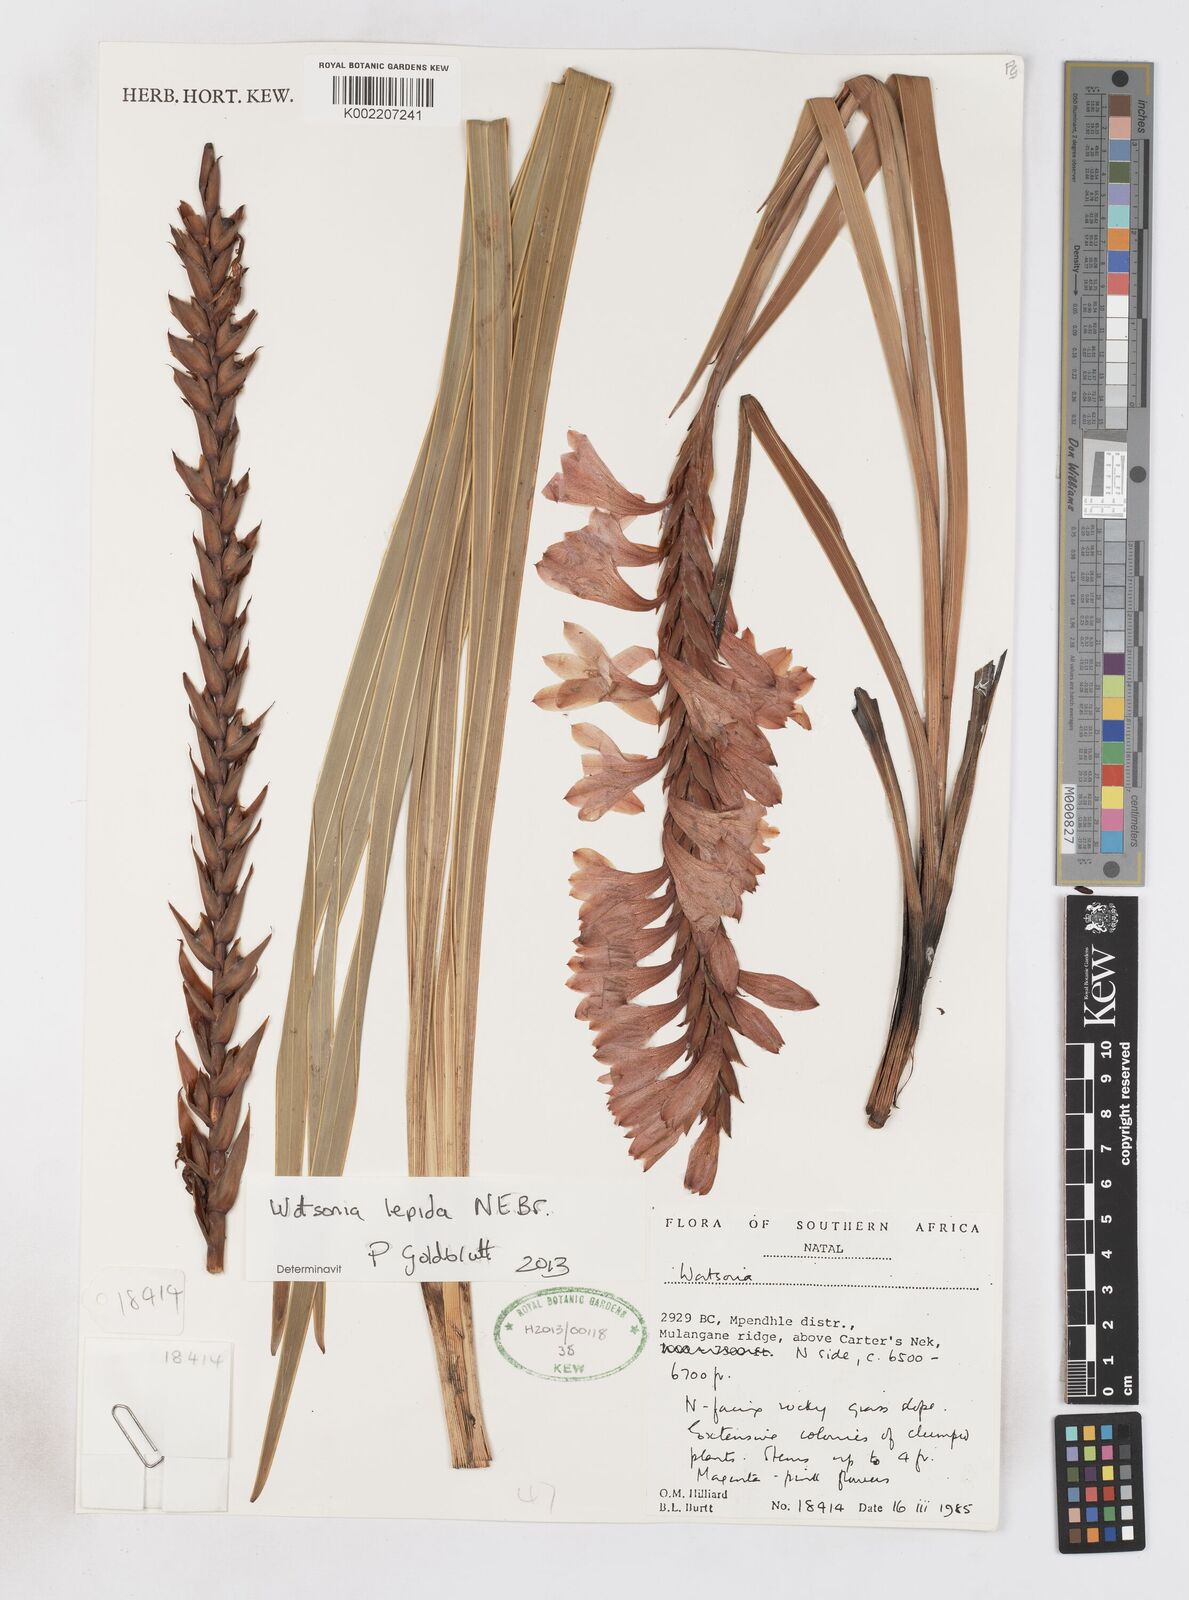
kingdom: Plantae
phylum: Tracheophyta
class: Liliopsida
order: Asparagales
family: Iridaceae
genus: Watsonia
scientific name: Watsonia lepida
